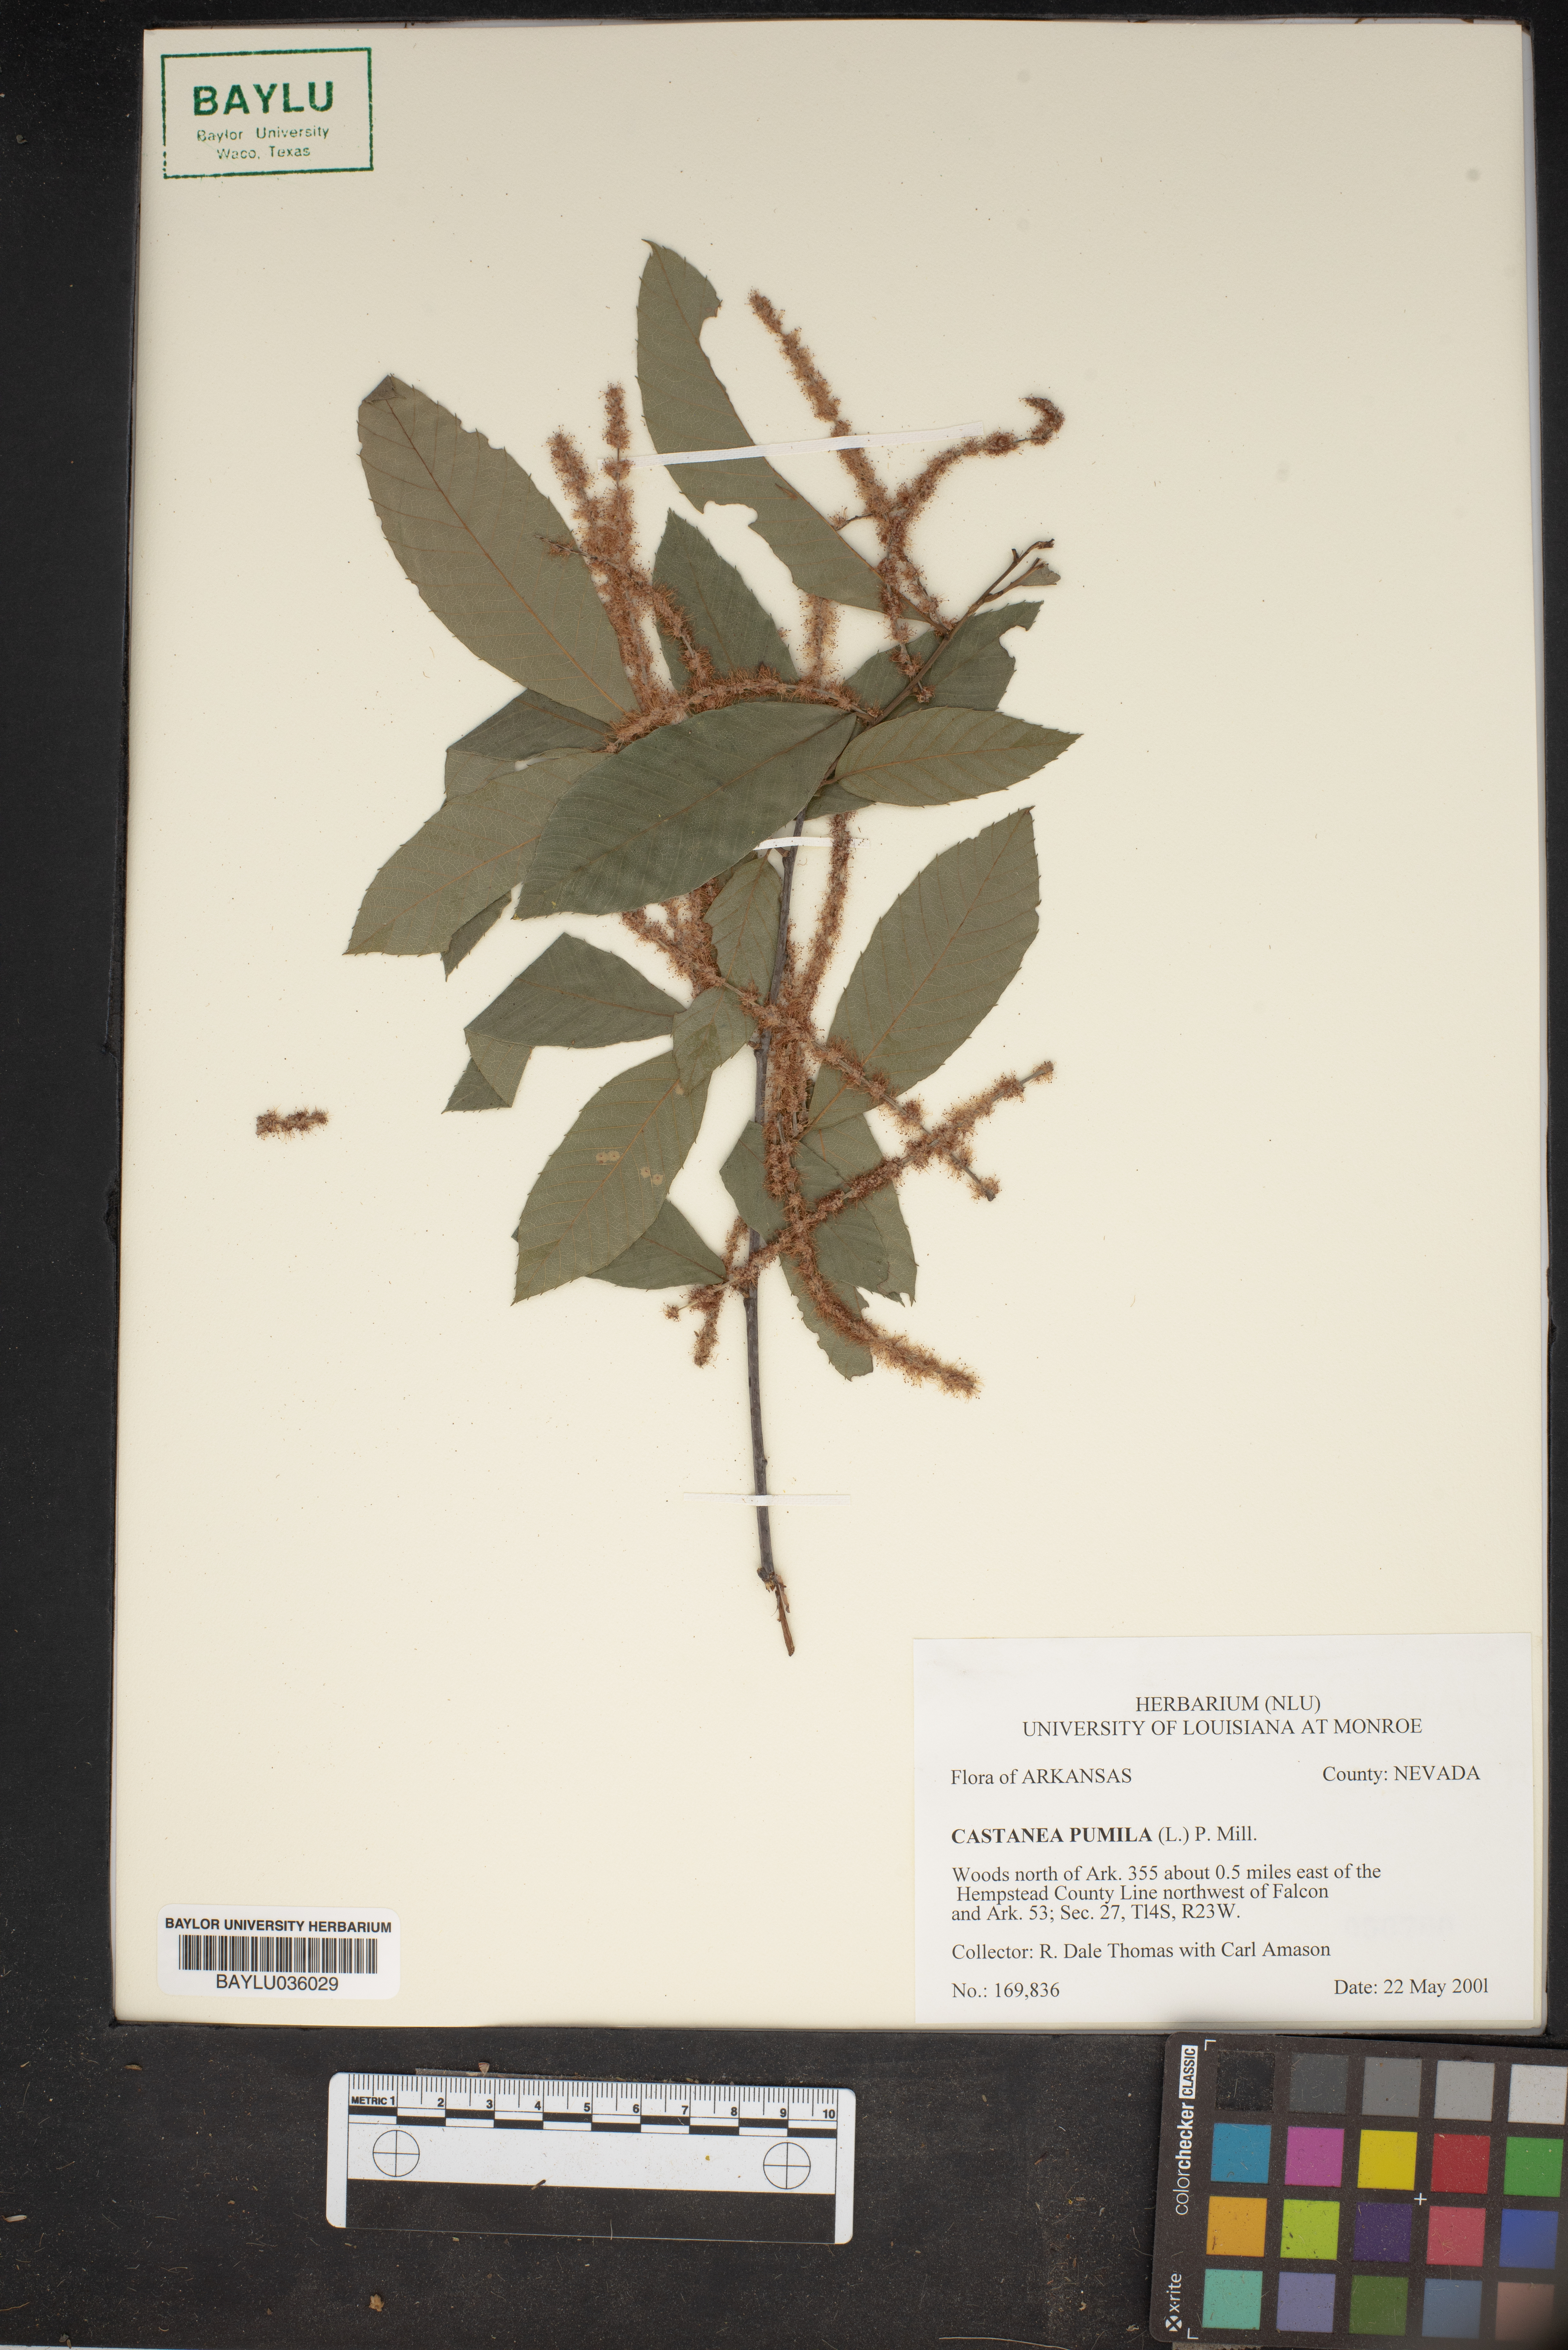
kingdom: Plantae
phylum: Tracheophyta
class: Magnoliopsida
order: Fagales
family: Fagaceae
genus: Castanea
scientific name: Castanea pumila
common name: Chinkapin
